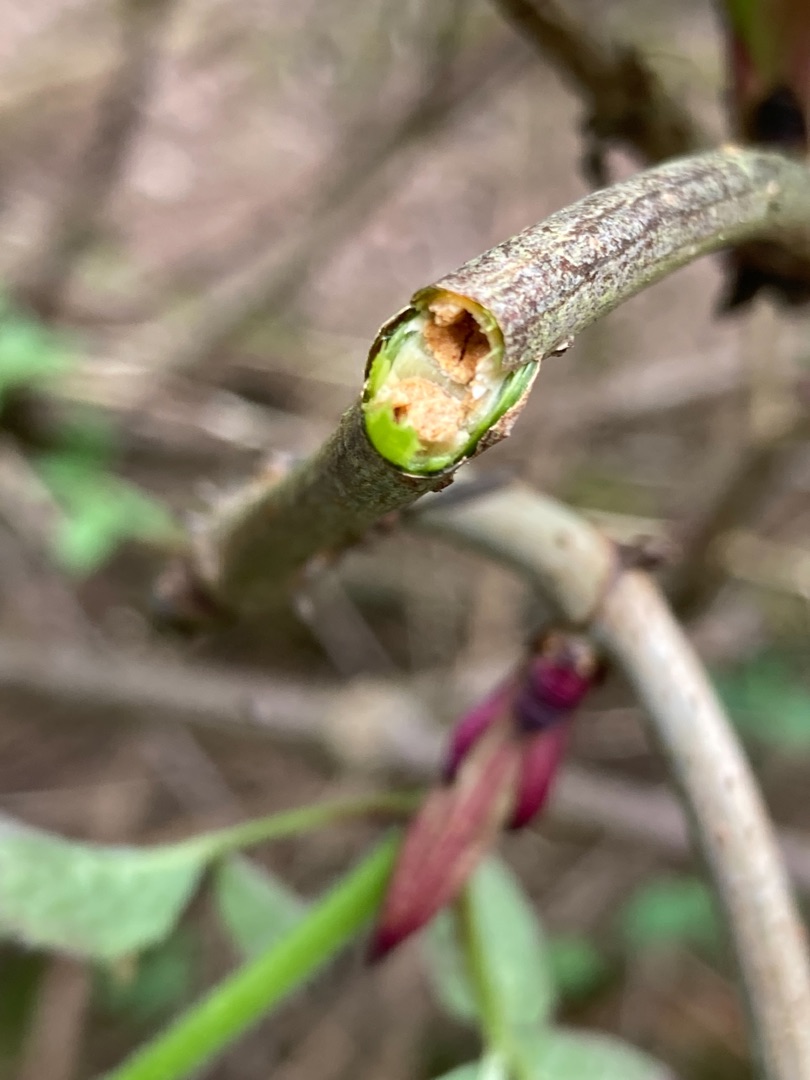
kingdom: Plantae
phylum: Tracheophyta
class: Magnoliopsida
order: Dipsacales
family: Viburnaceae
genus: Sambucus
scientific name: Sambucus racemosa
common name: Drue-hyld
